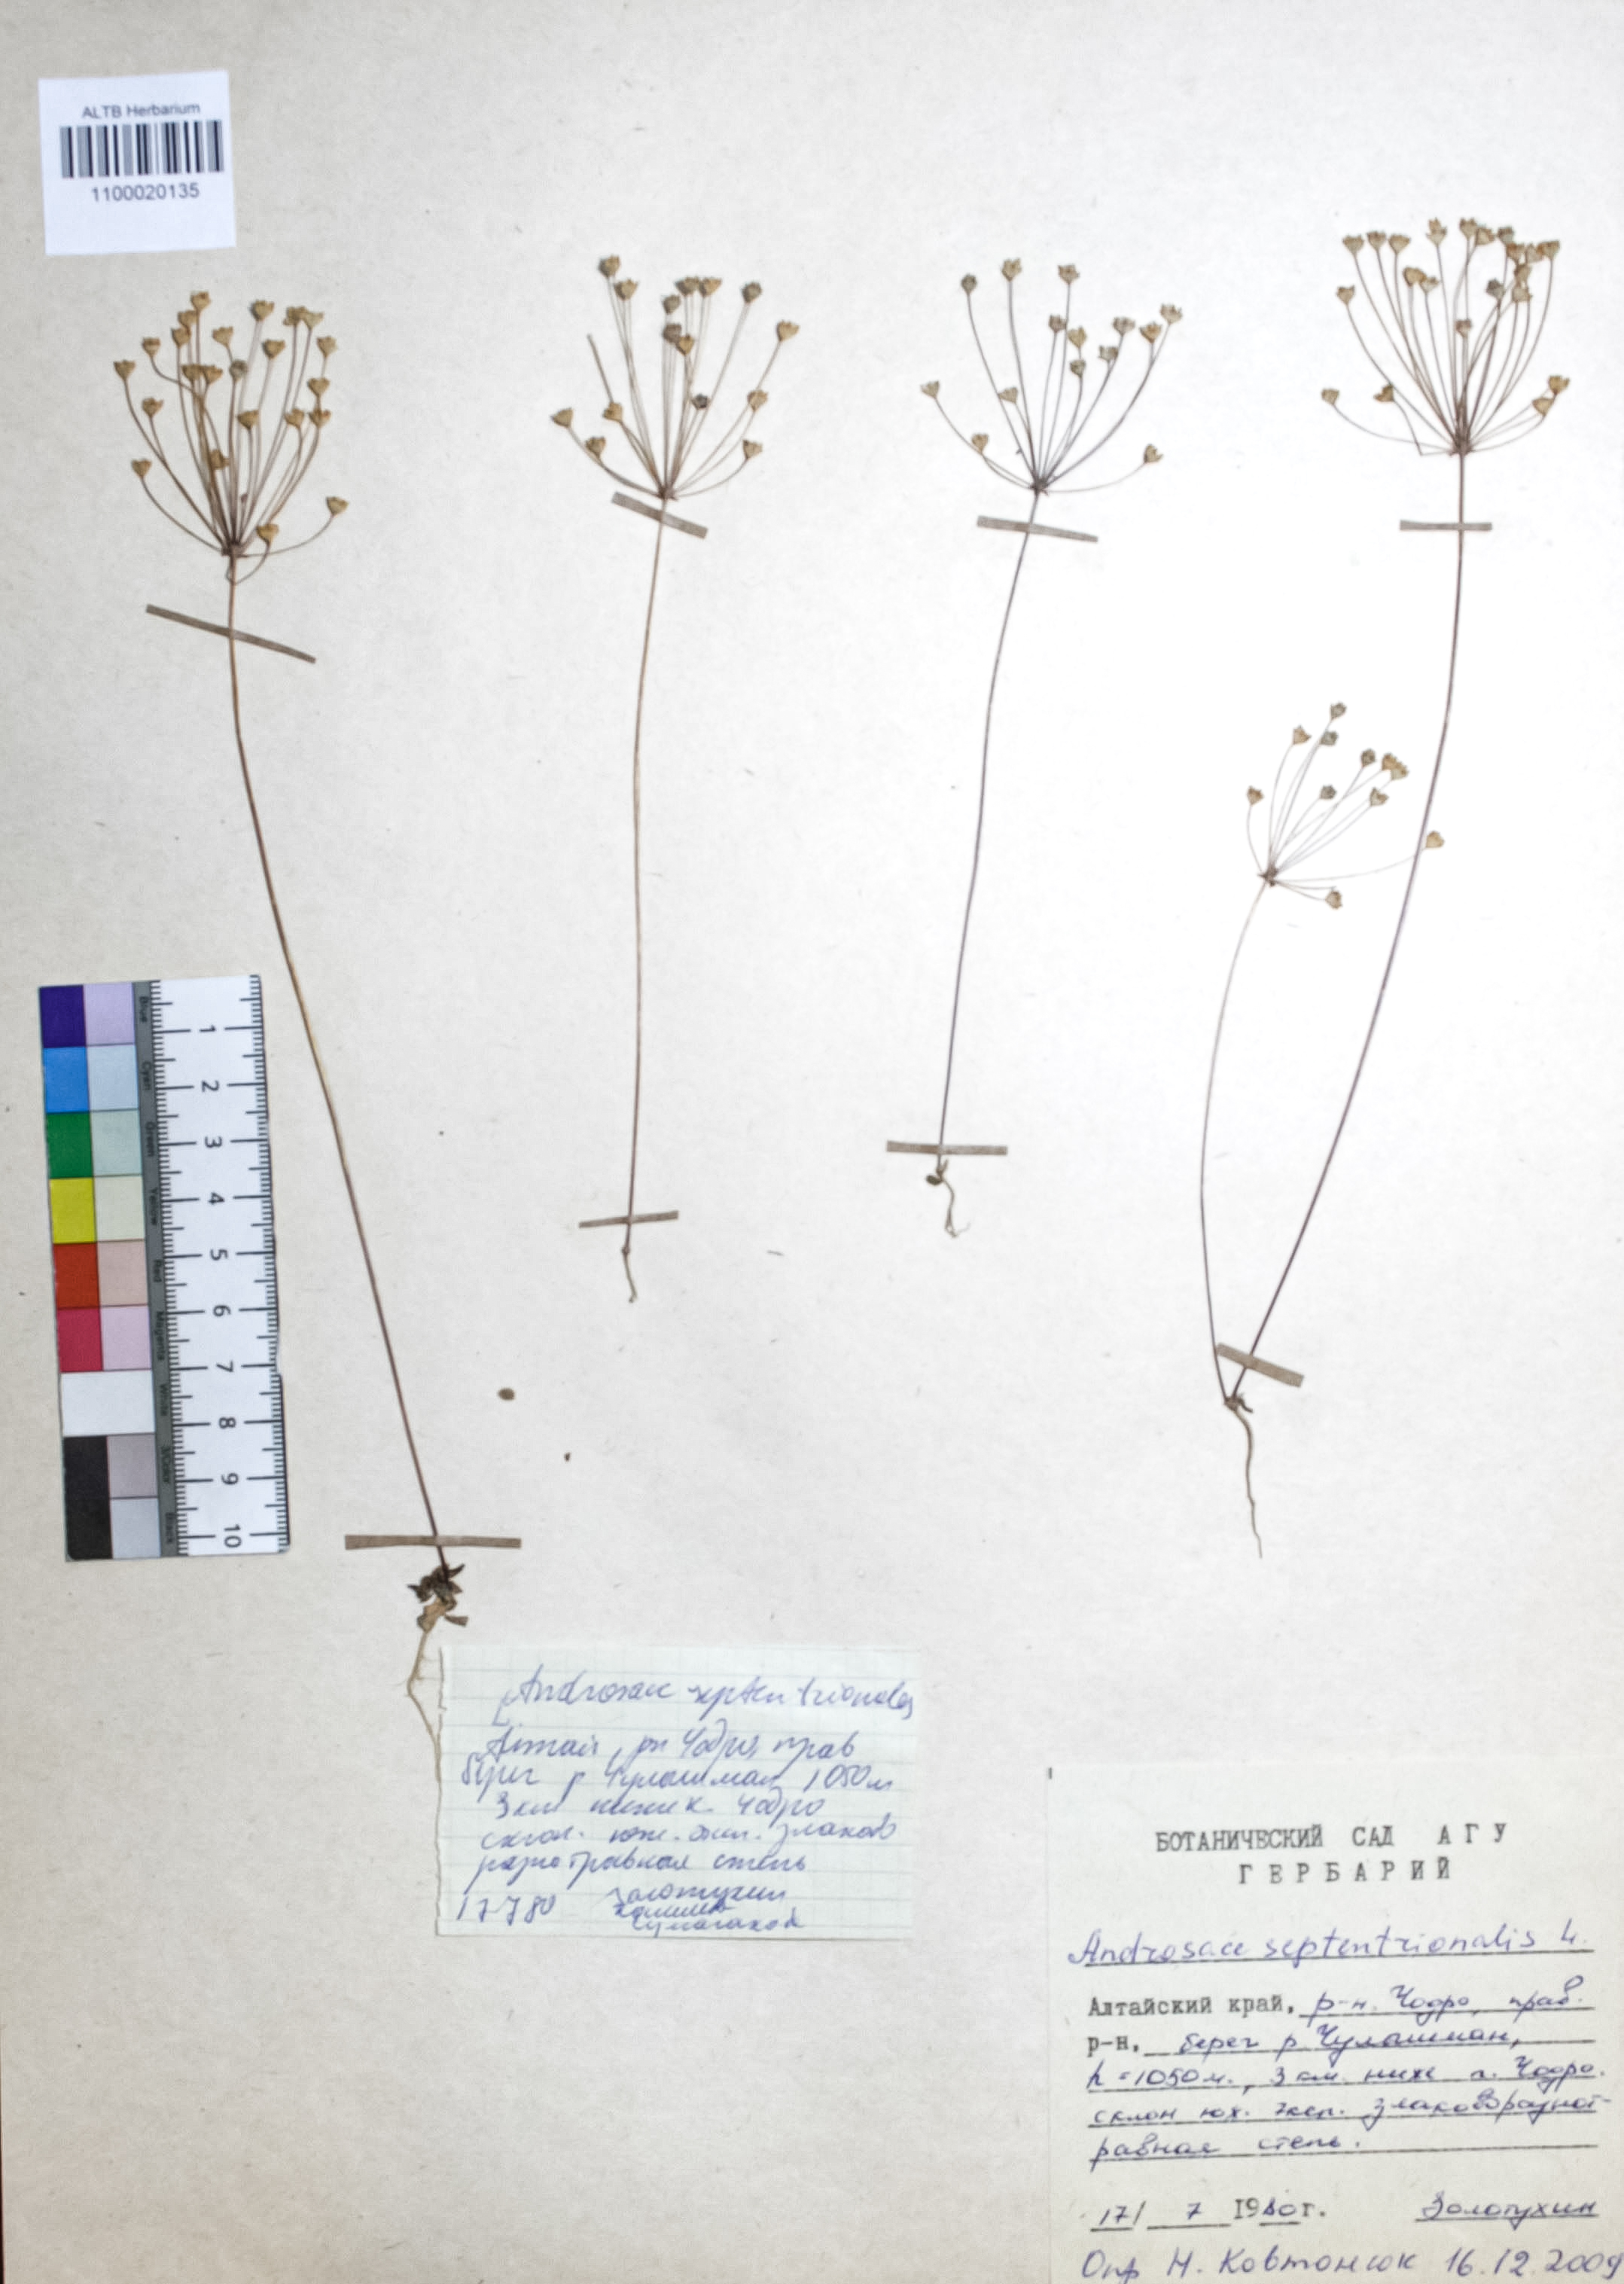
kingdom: Plantae
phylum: Tracheophyta
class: Magnoliopsida
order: Ericales
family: Primulaceae
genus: Androsace
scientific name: Androsace septentrionalis
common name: Hairy northern fairy-candelabra
